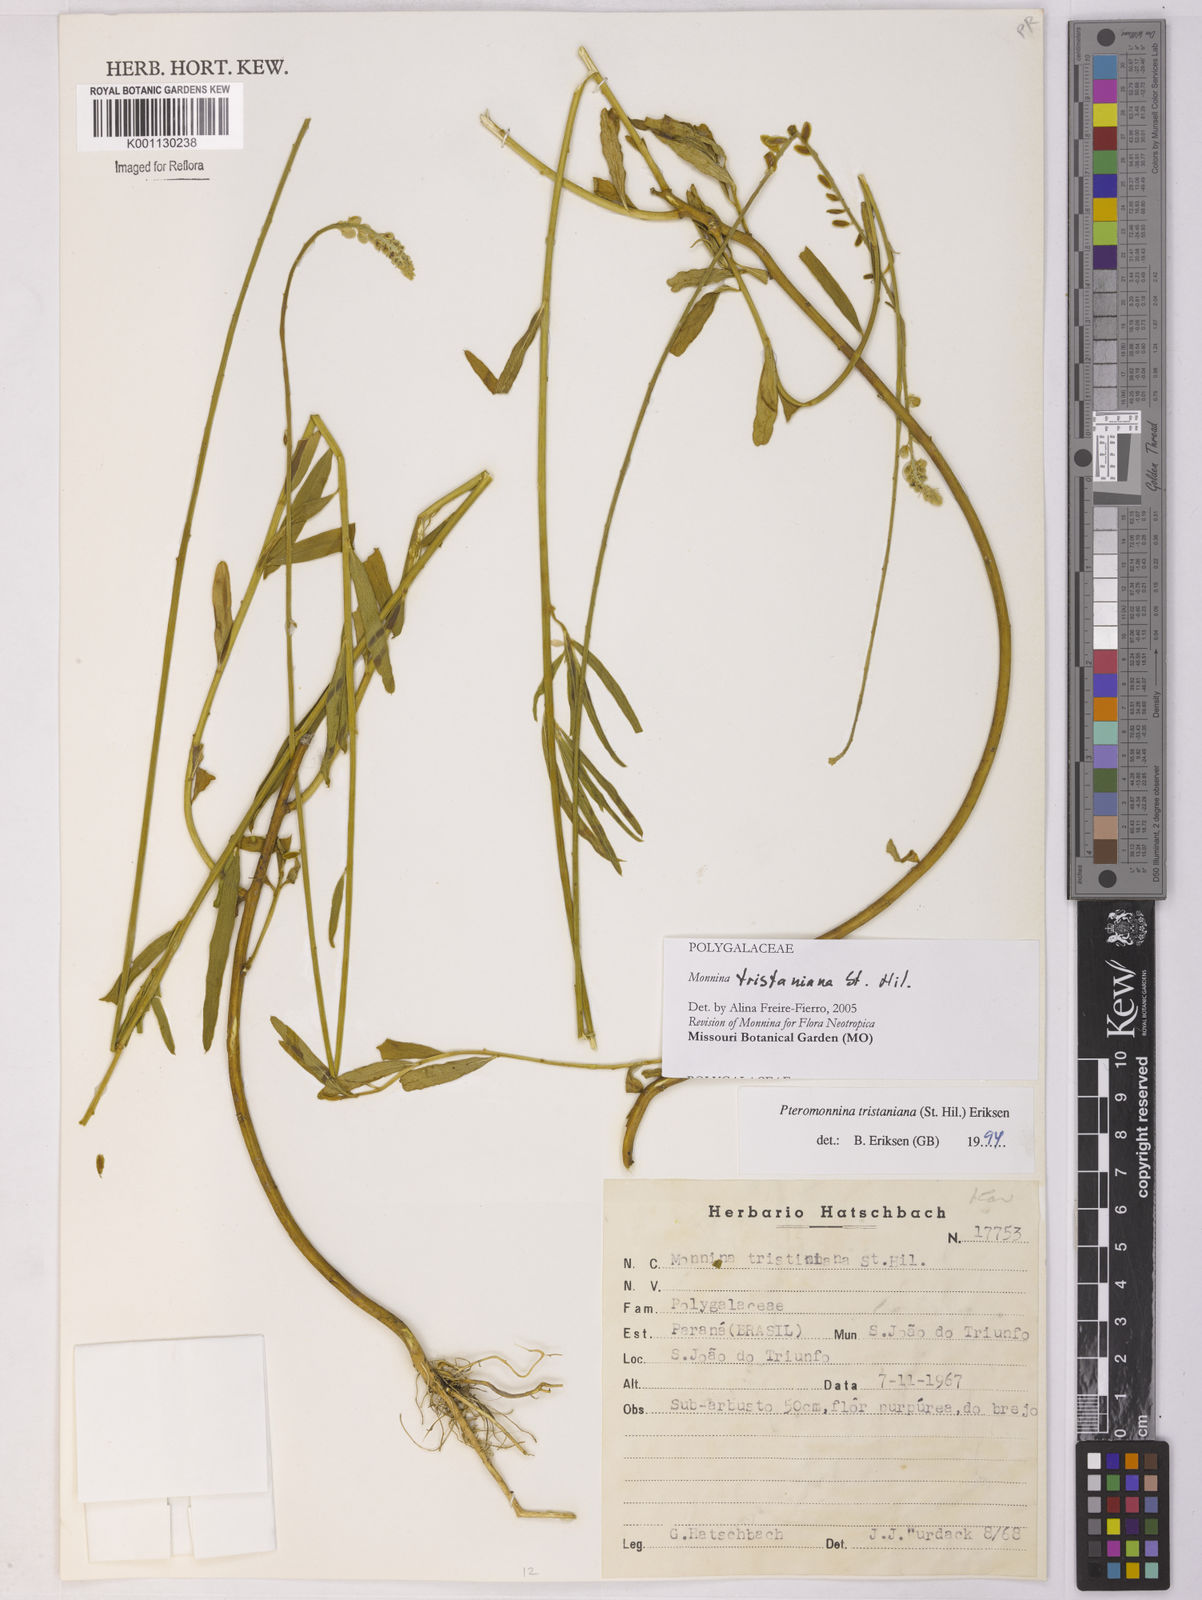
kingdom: Plantae
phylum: Tracheophyta
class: Magnoliopsida
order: Fabales
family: Polygalaceae
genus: Monnina
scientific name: Monnina tristaniana
